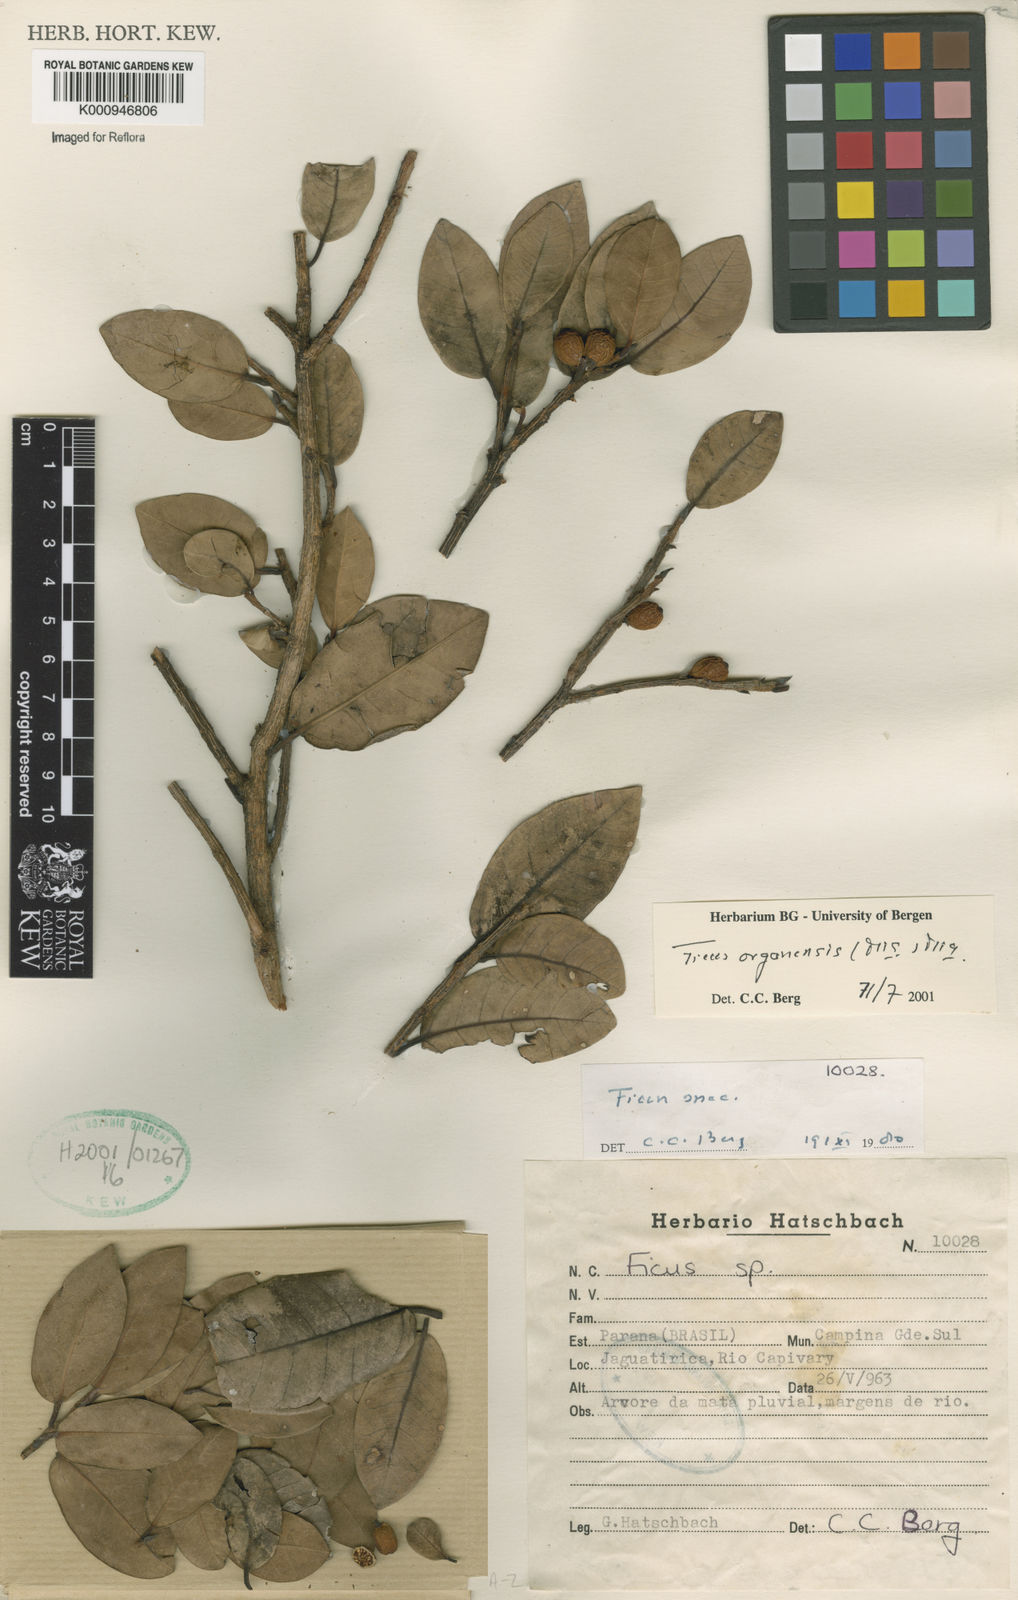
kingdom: Plantae
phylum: Tracheophyta
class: Magnoliopsida
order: Rosales
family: Moraceae
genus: Ficus
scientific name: Ficus organensis
